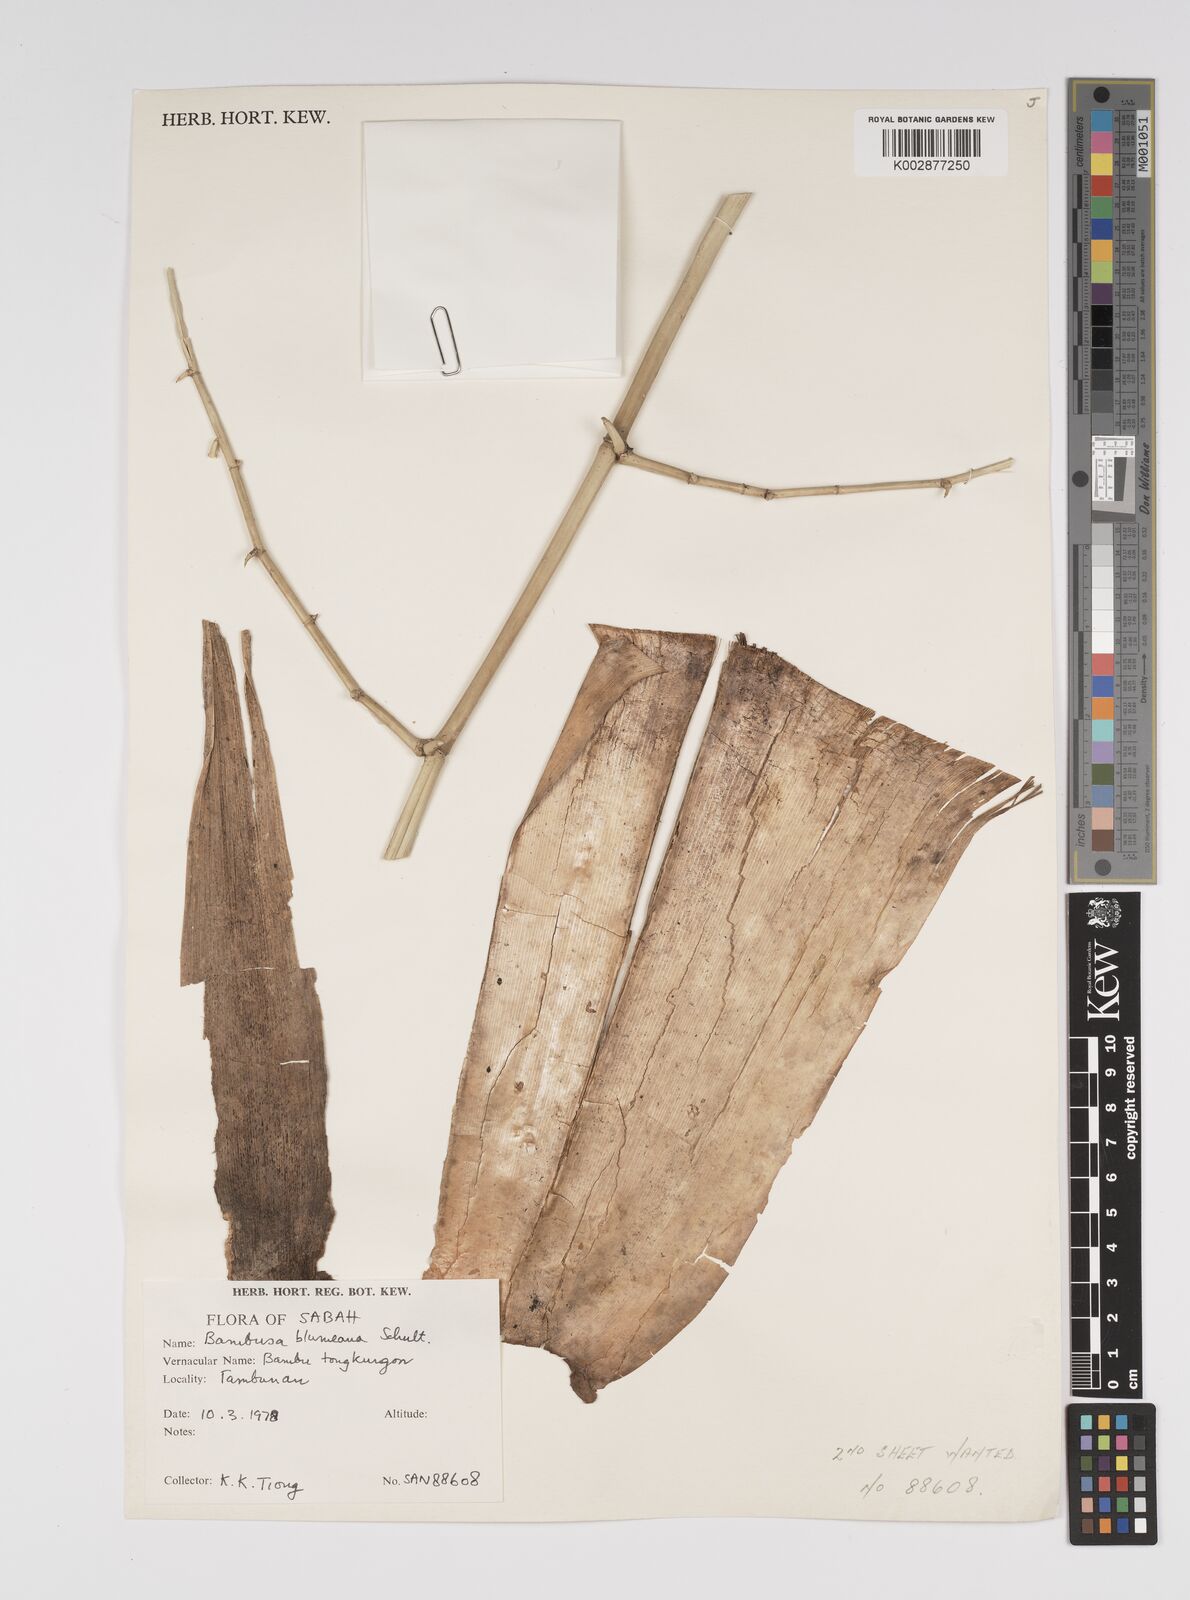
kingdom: Plantae
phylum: Tracheophyta
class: Liliopsida
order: Poales
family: Poaceae
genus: Bambusa
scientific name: Bambusa spinosa
